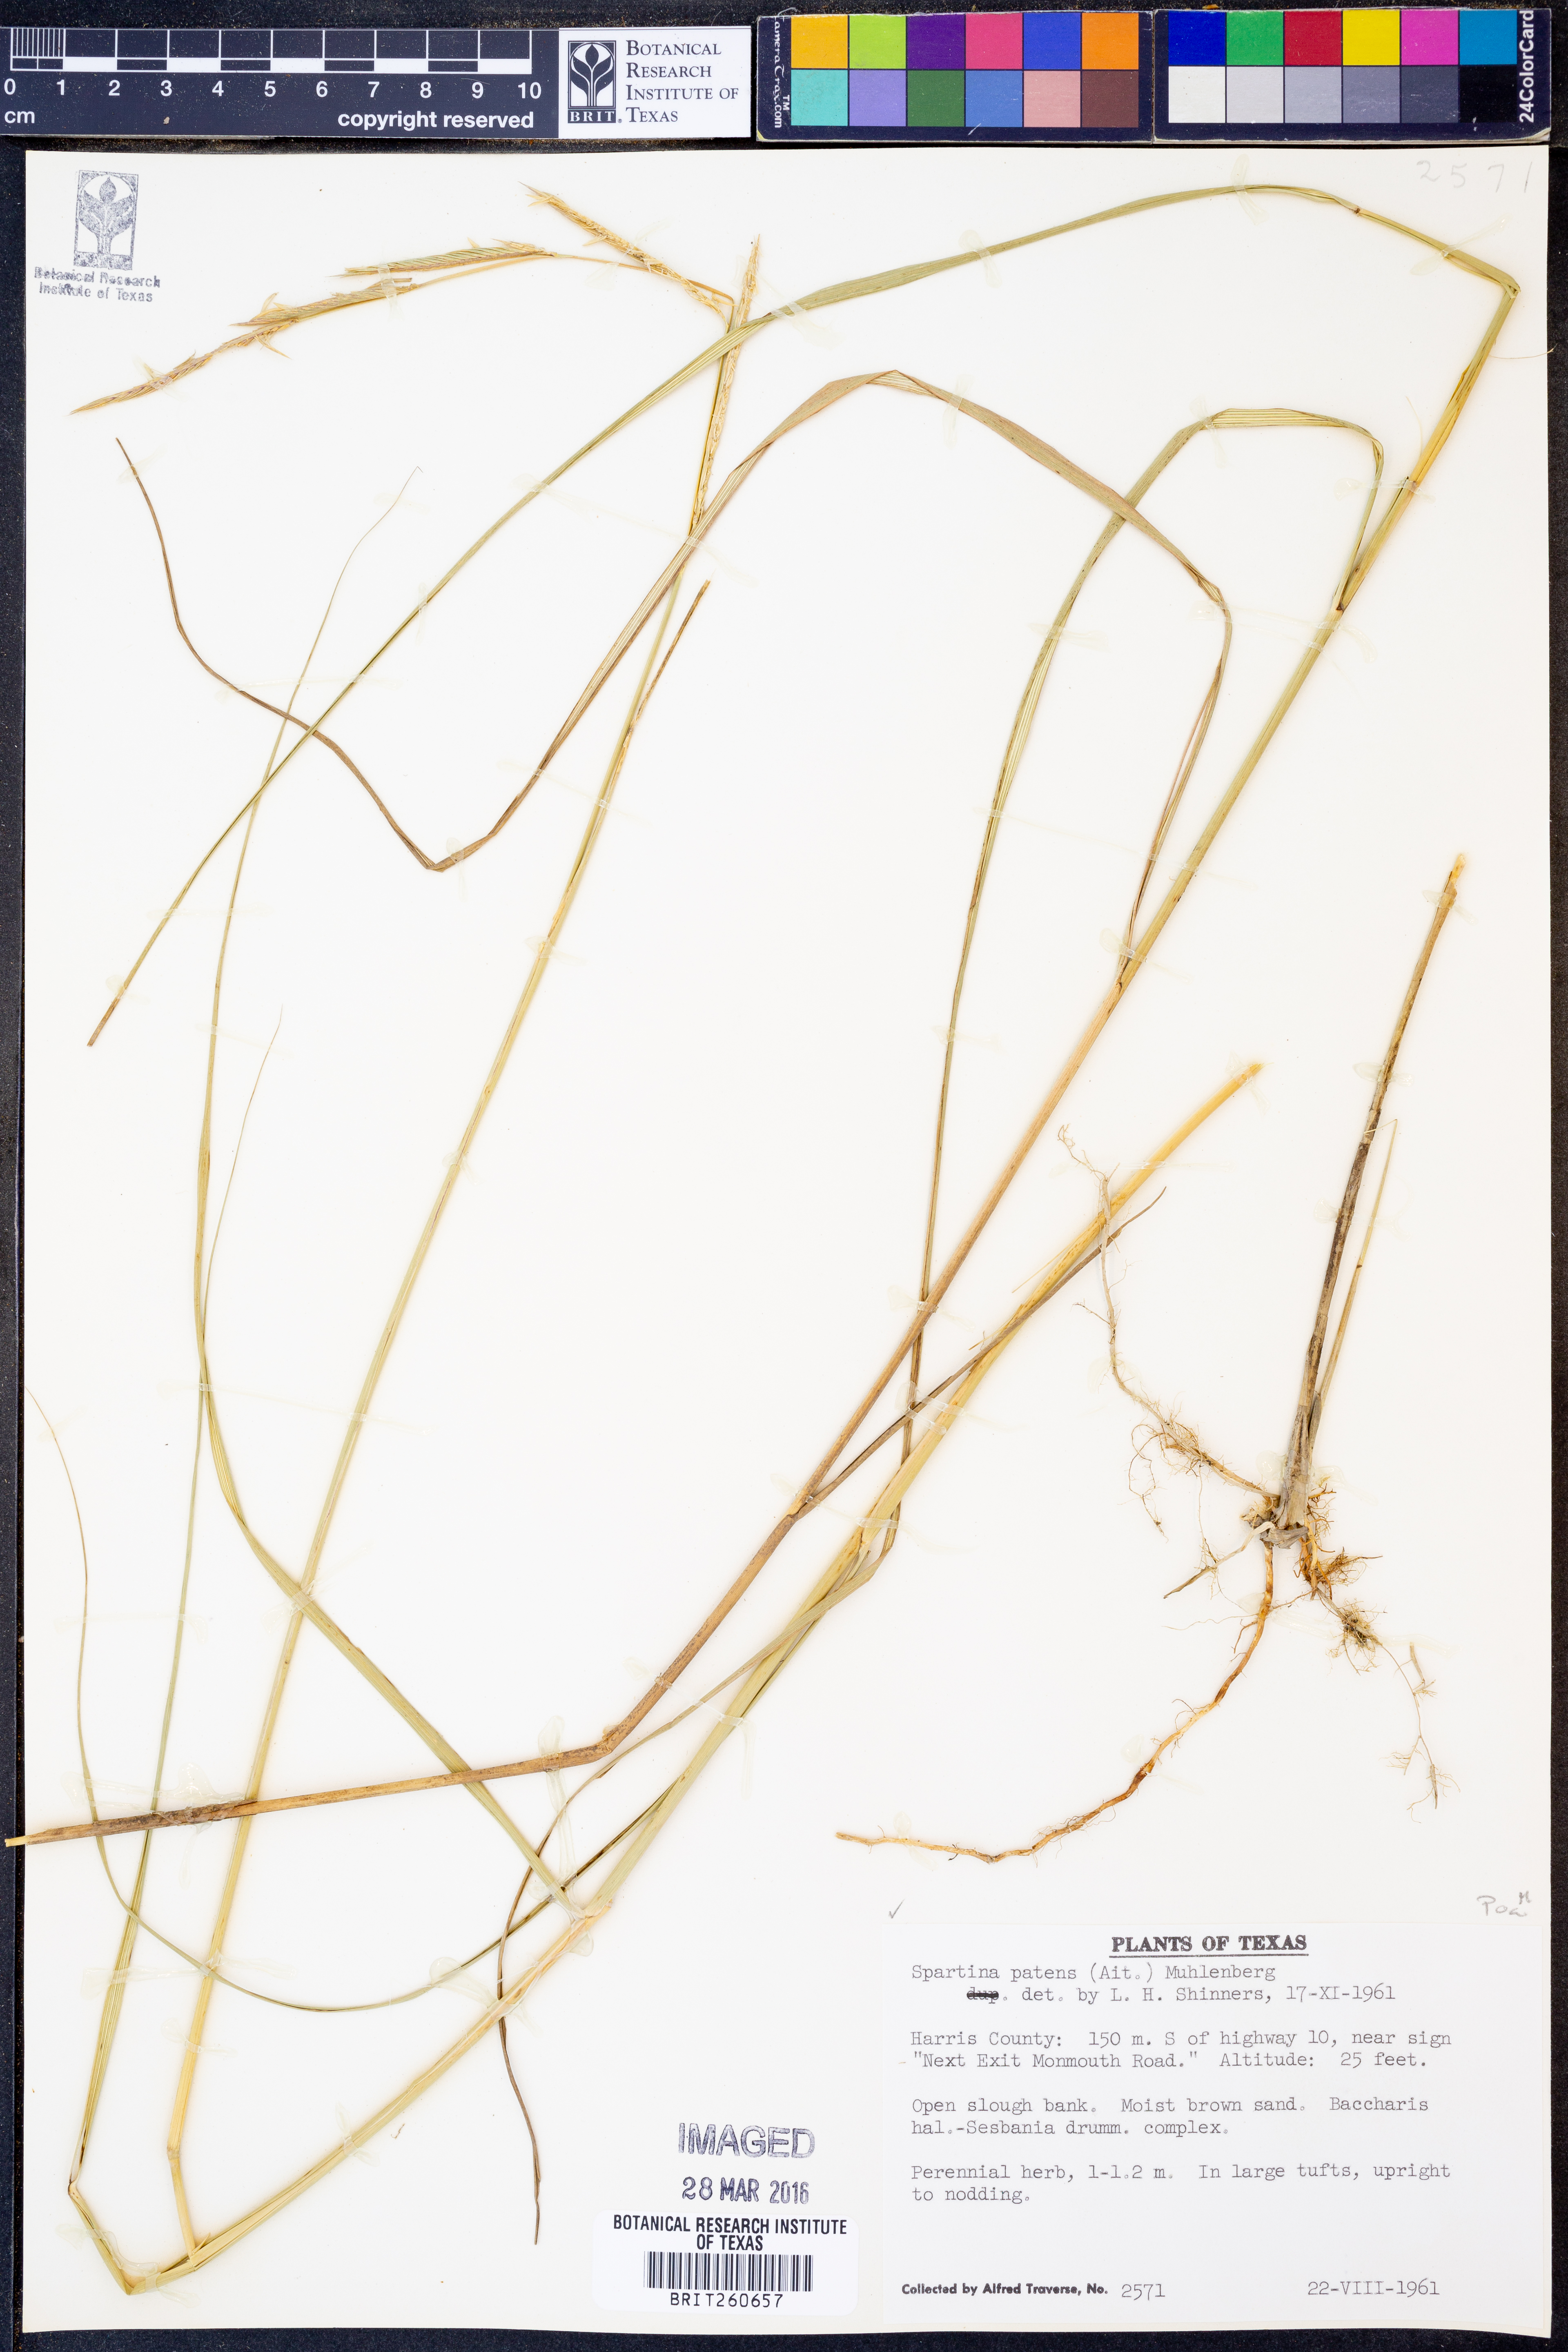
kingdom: Plantae
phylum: Tracheophyta
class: Liliopsida
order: Poales
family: Poaceae
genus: Sporobolus
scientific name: Sporobolus pumilus
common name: Highwater grass
